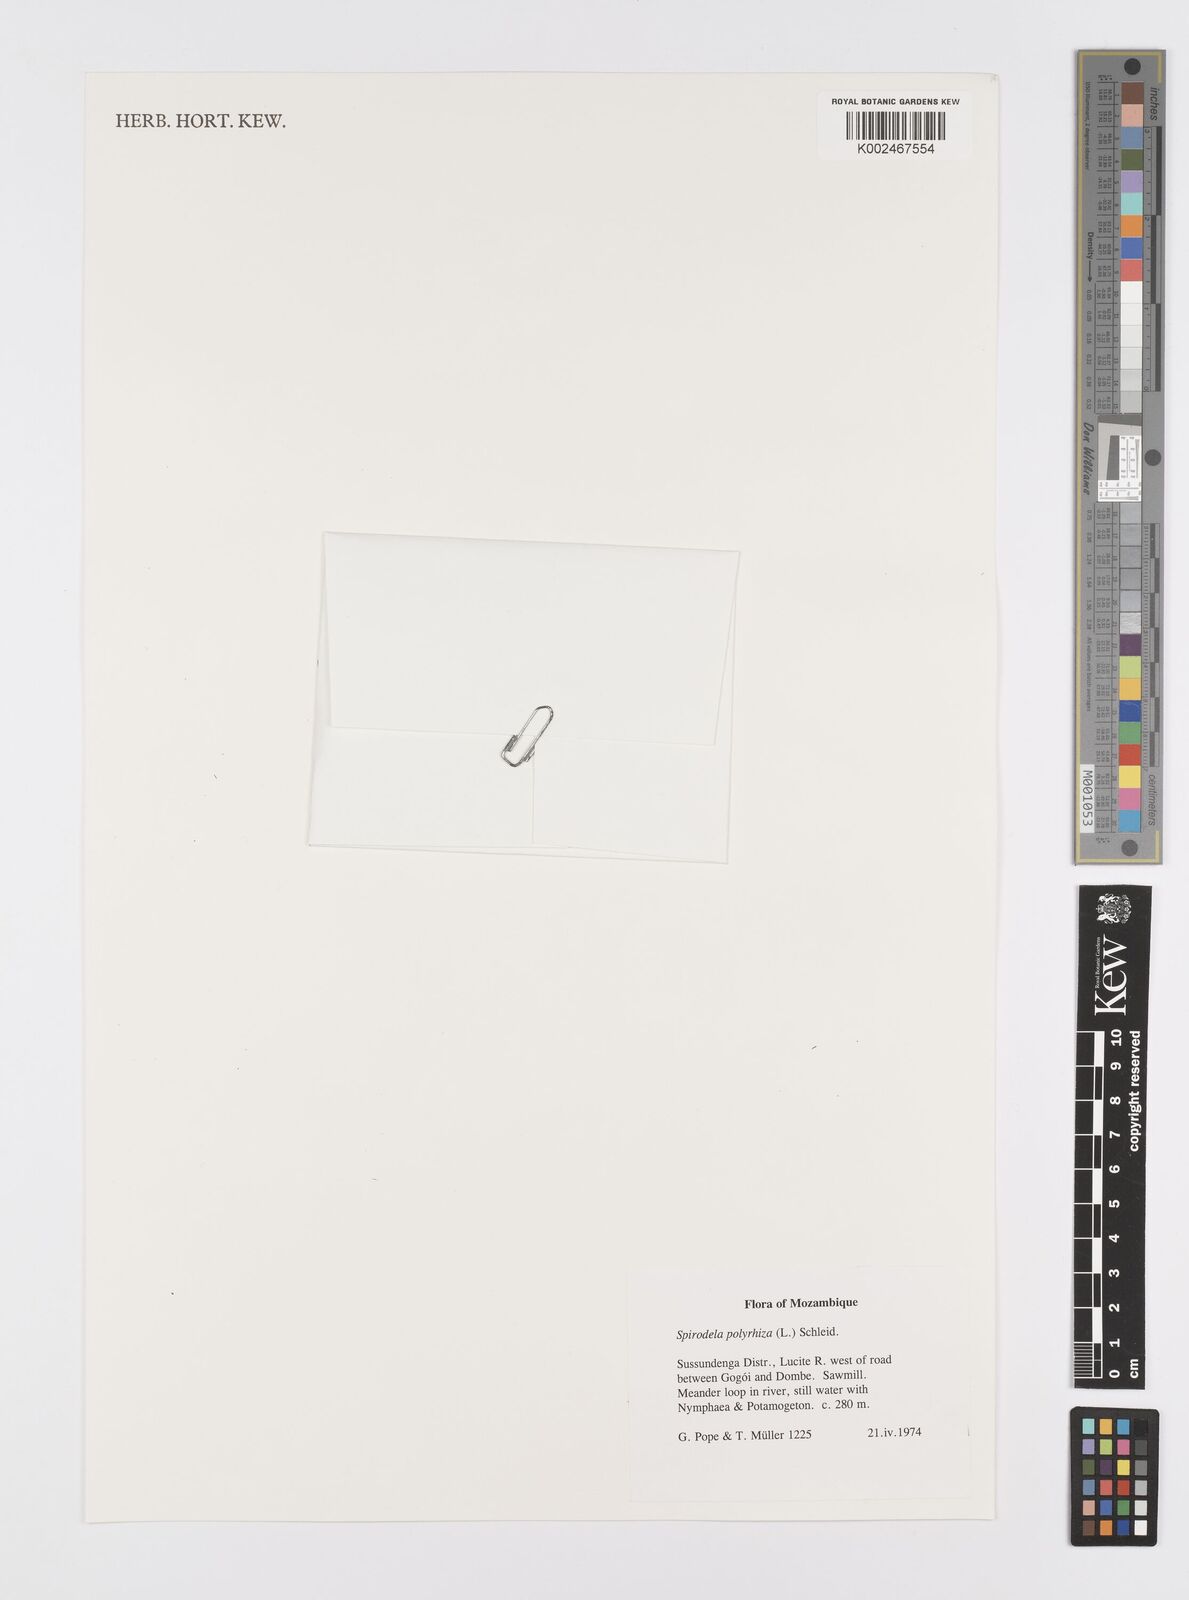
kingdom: Plantae
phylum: Tracheophyta
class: Liliopsida
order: Alismatales
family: Araceae
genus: Spirodela
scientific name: Spirodela polyrhiza
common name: Great duckweed
